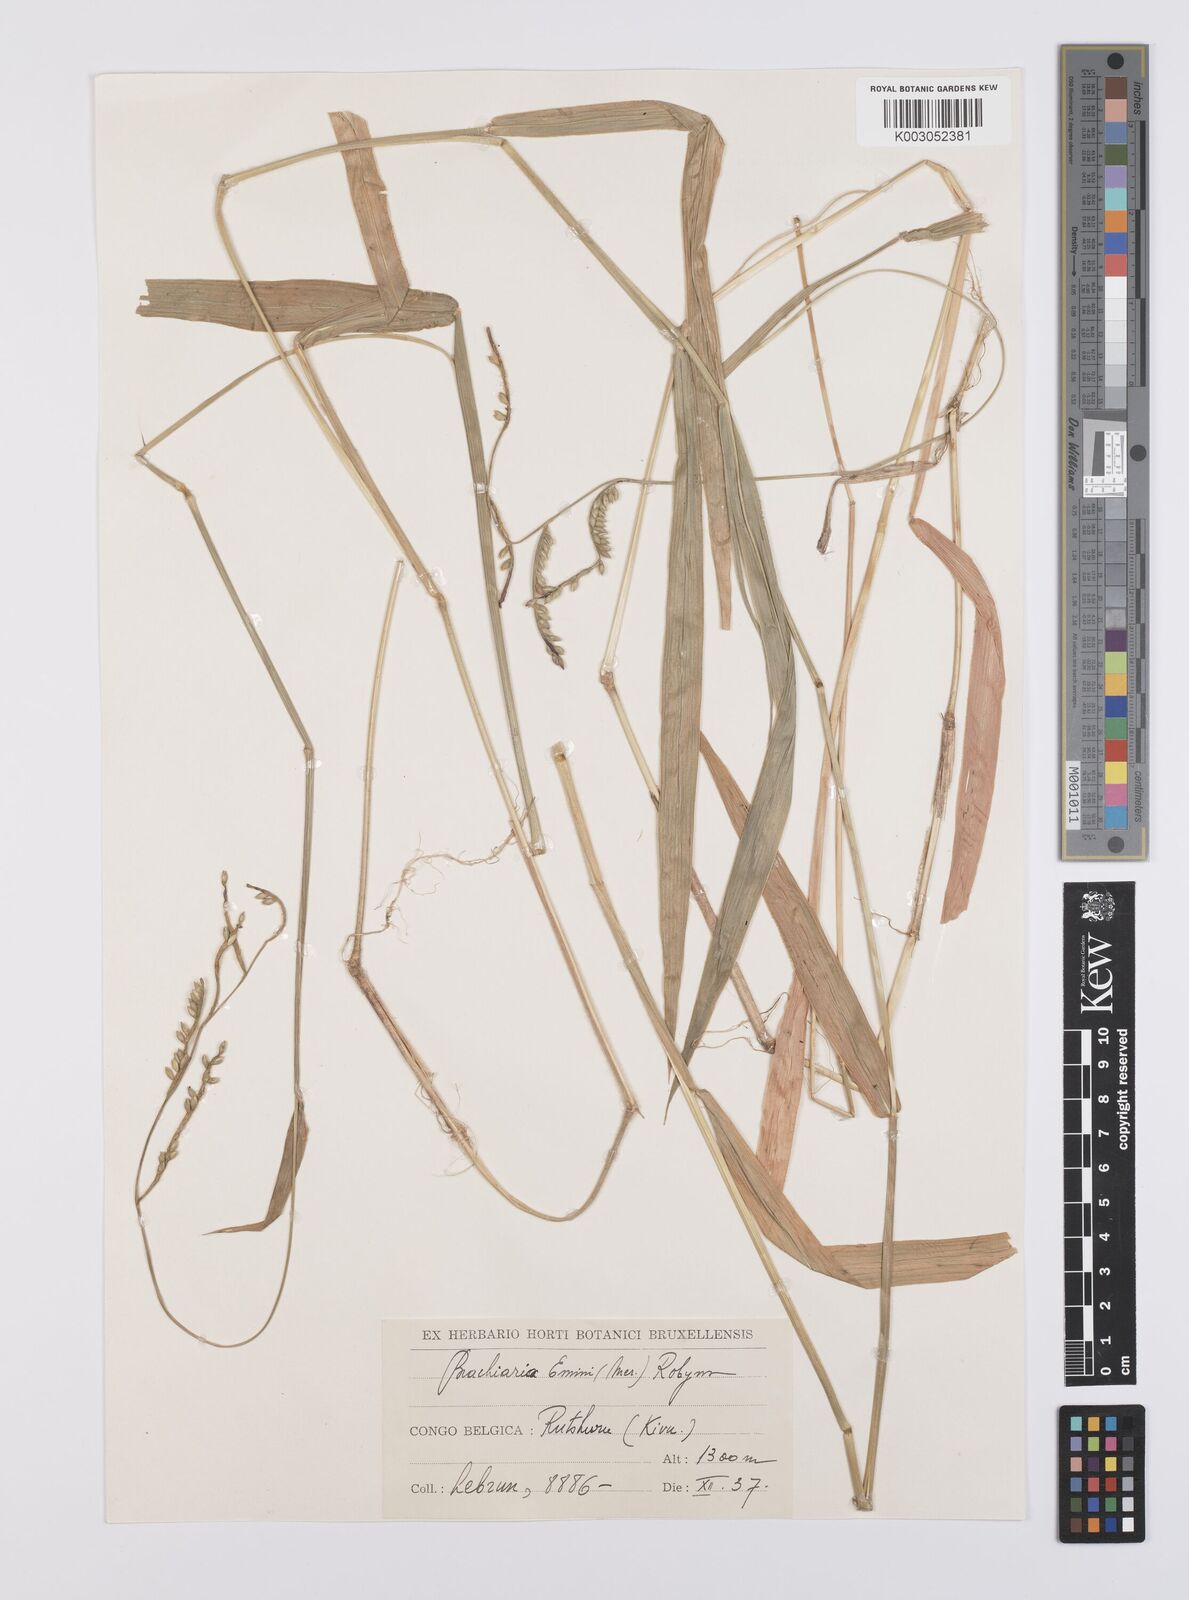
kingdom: Plantae
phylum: Tracheophyta
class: Liliopsida
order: Poales
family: Poaceae
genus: Urochloa
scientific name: Urochloa eminii
